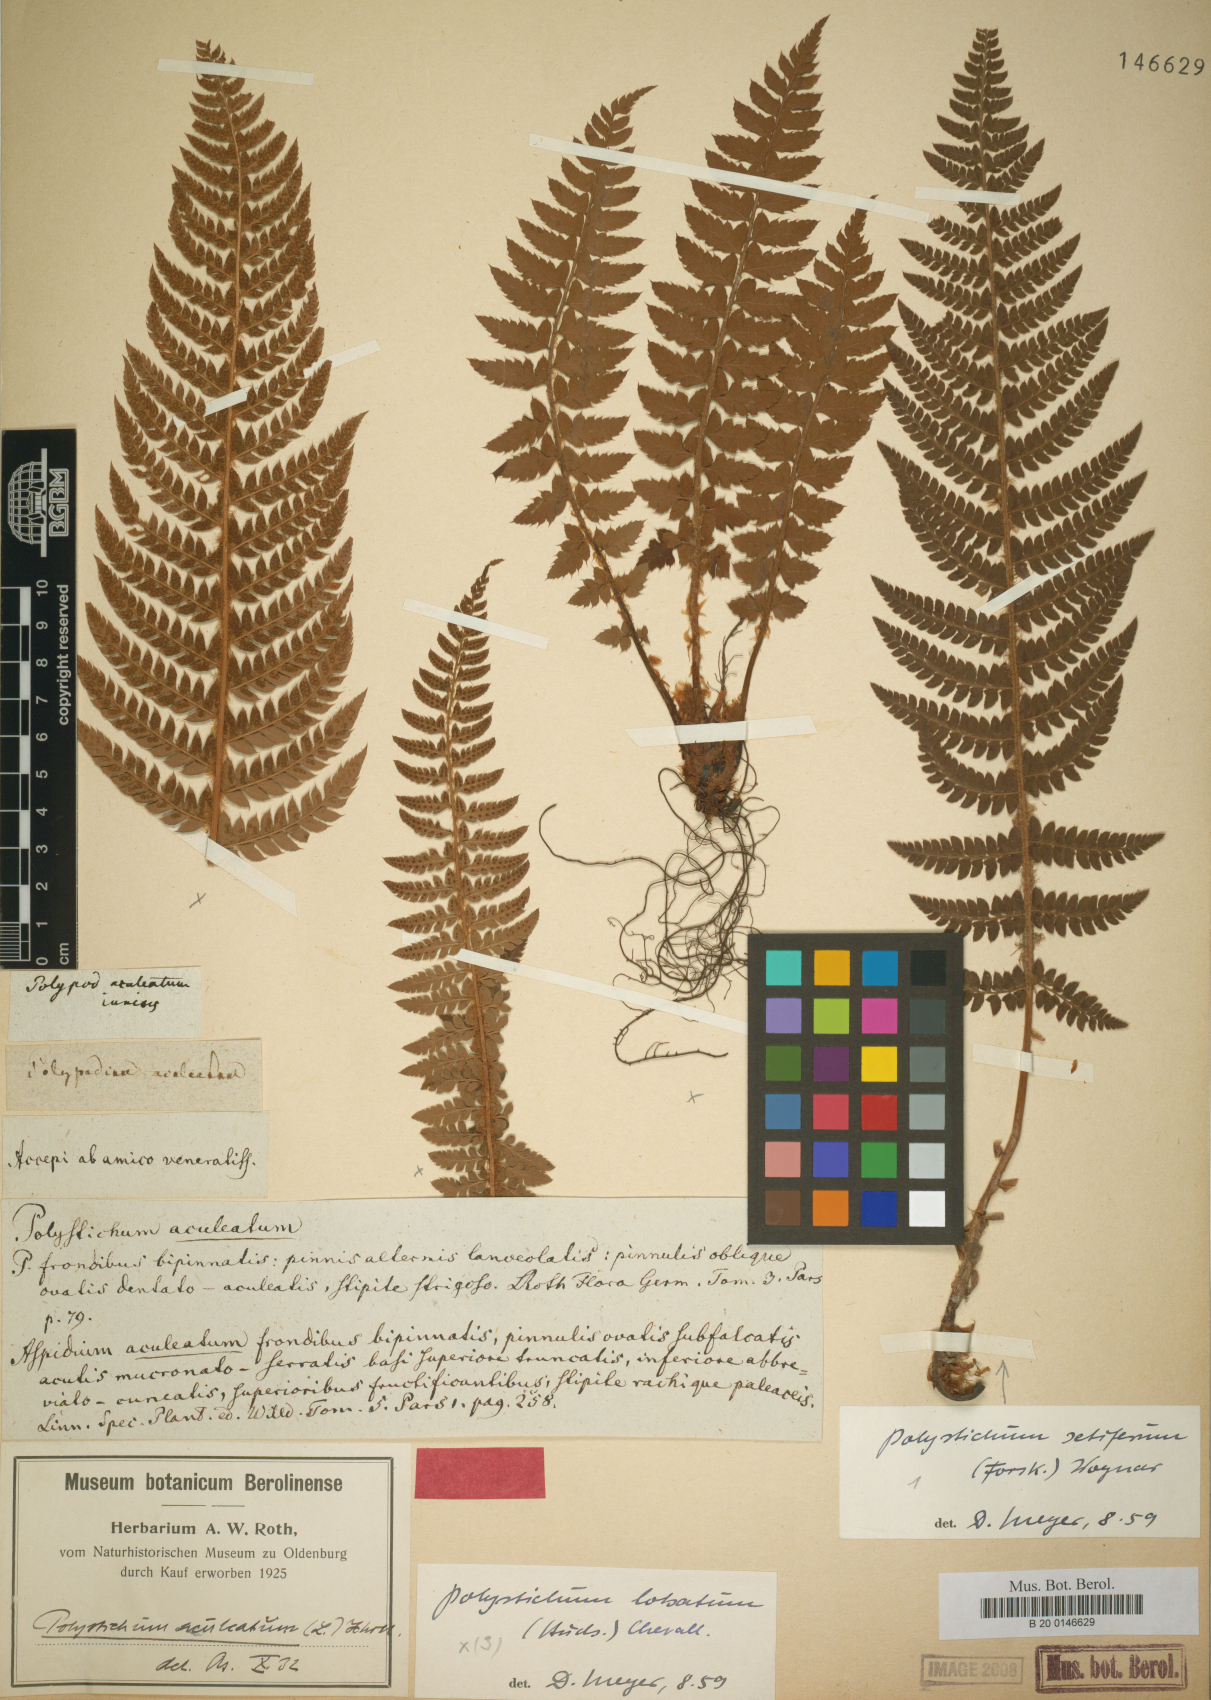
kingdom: Plantae
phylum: Tracheophyta
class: Polypodiopsida
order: Polypodiales
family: Dryopteridaceae
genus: Polystichum
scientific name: Polystichum aculeatum
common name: Hard shield-fern
